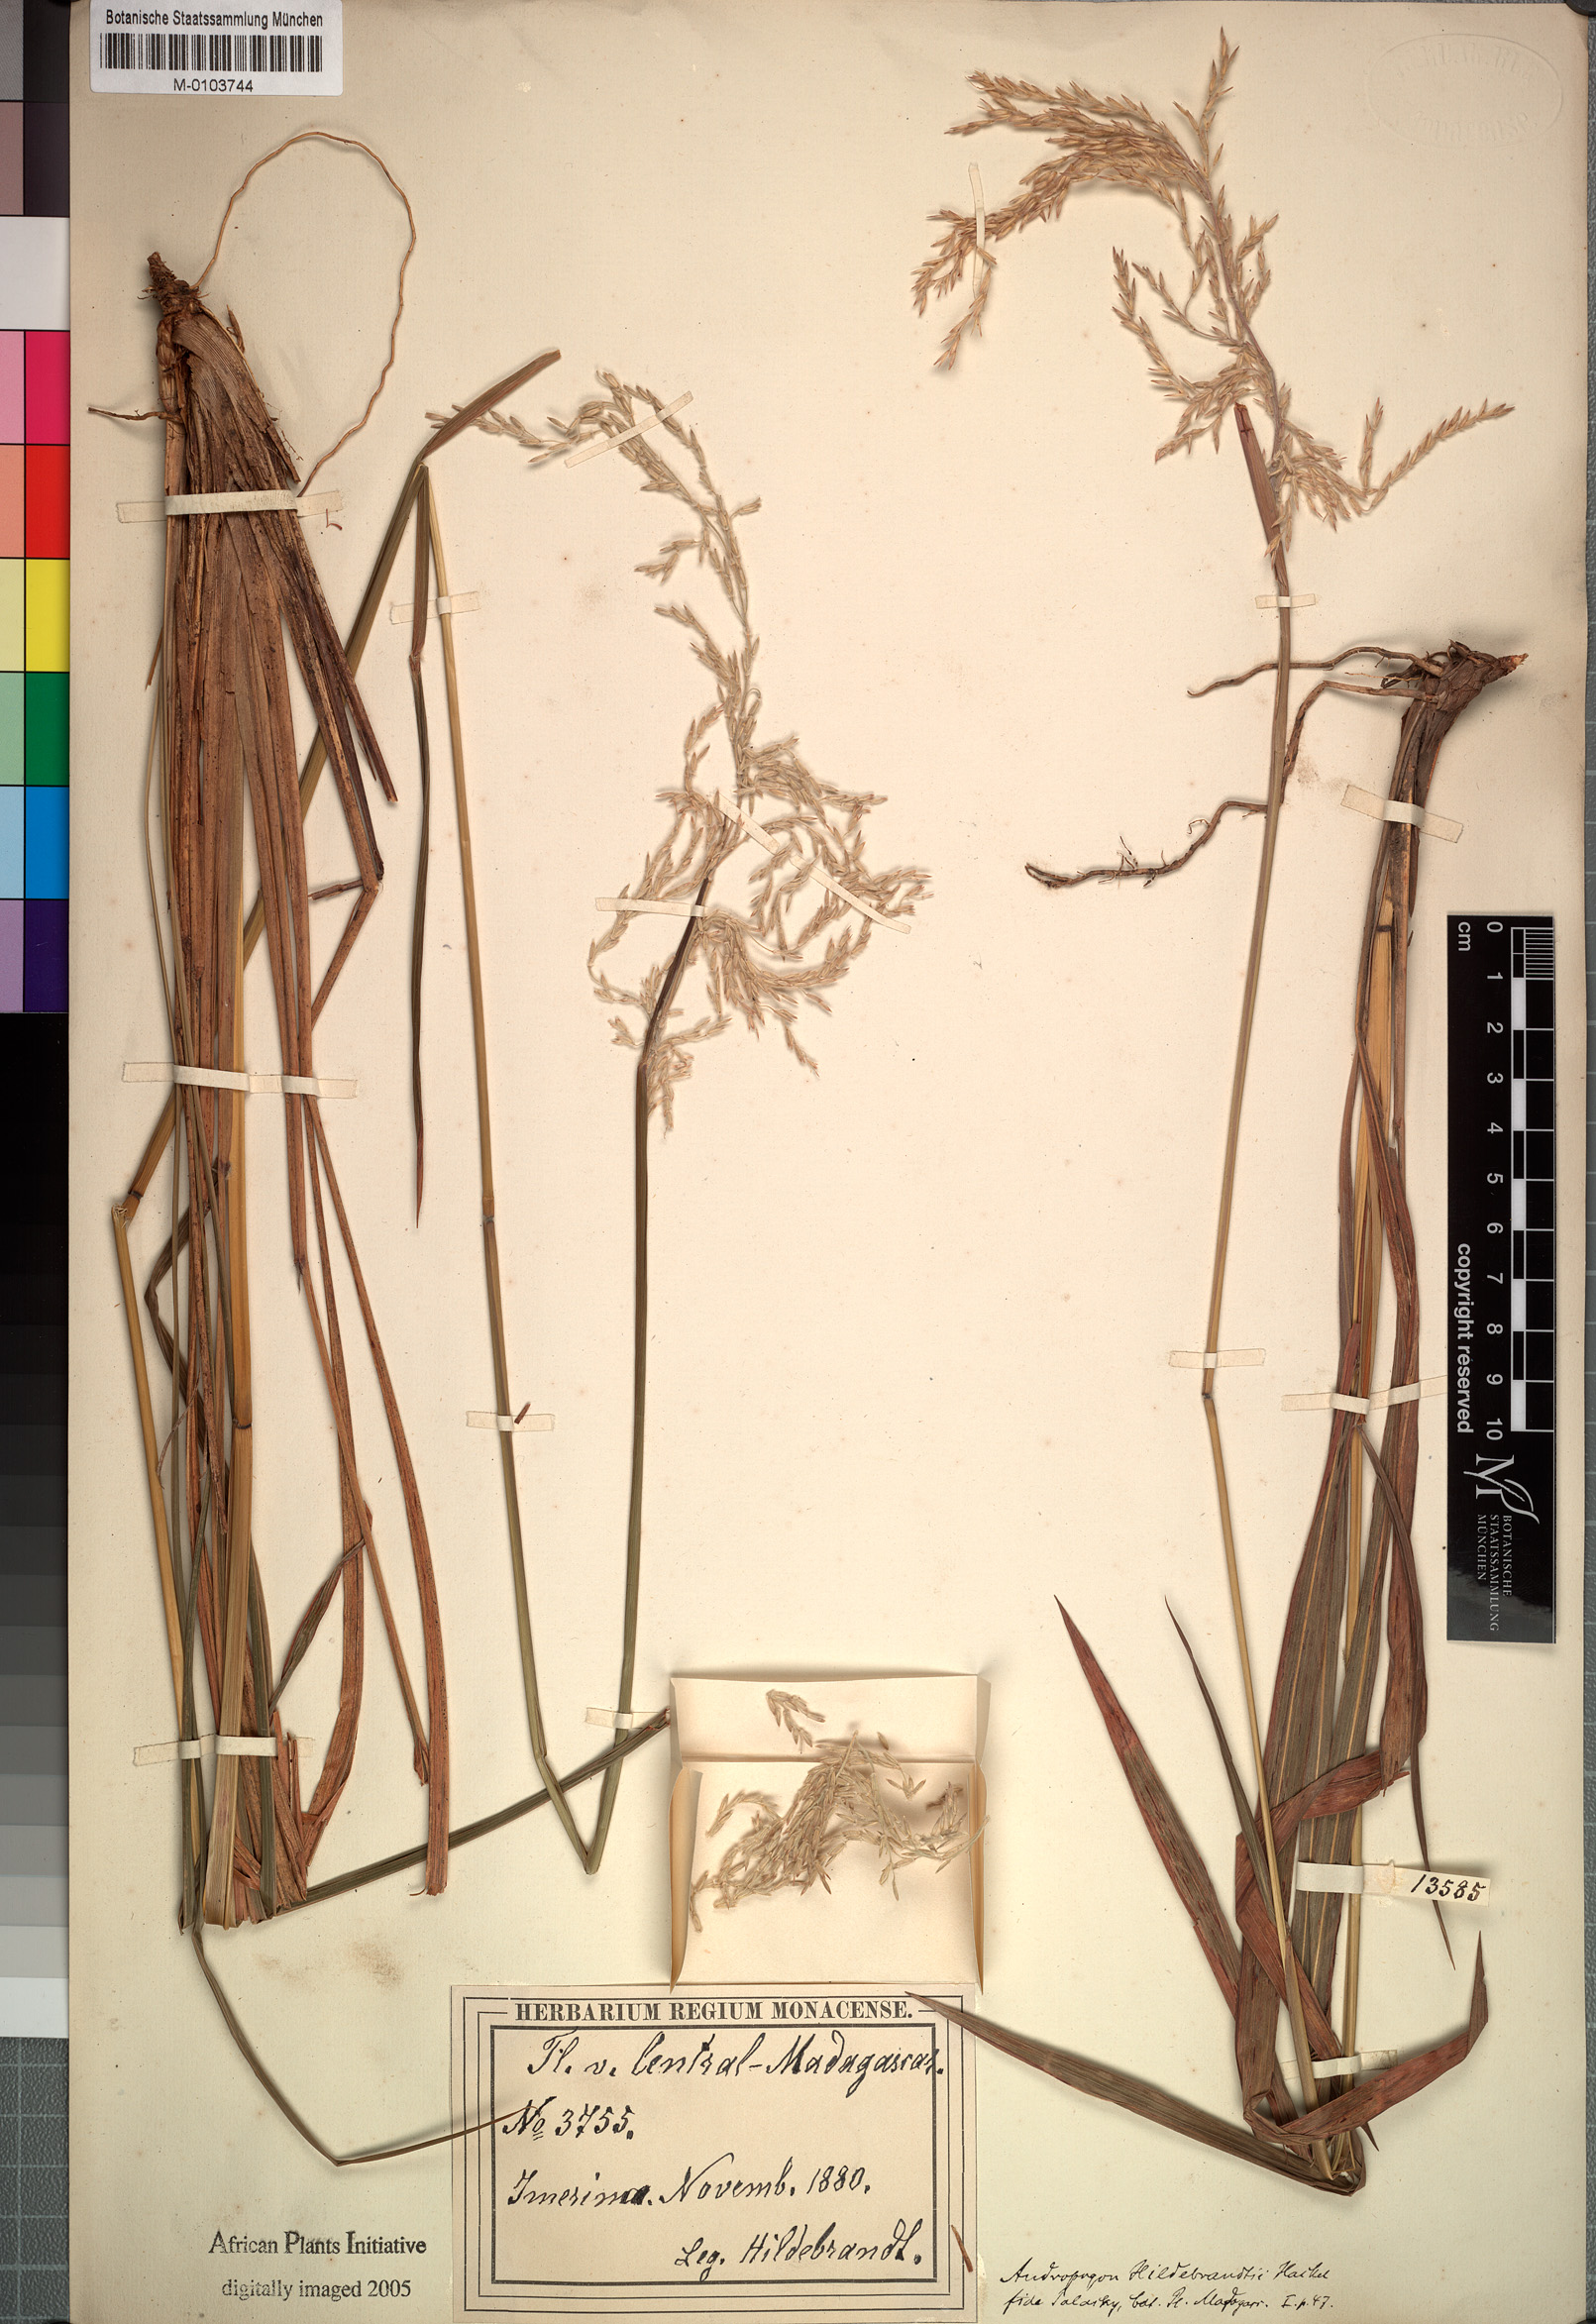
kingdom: Plantae
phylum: Tracheophyta
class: Liliopsida
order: Poales
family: Poaceae
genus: Lasiorhachis
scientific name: Lasiorhachis hildebrandtii
